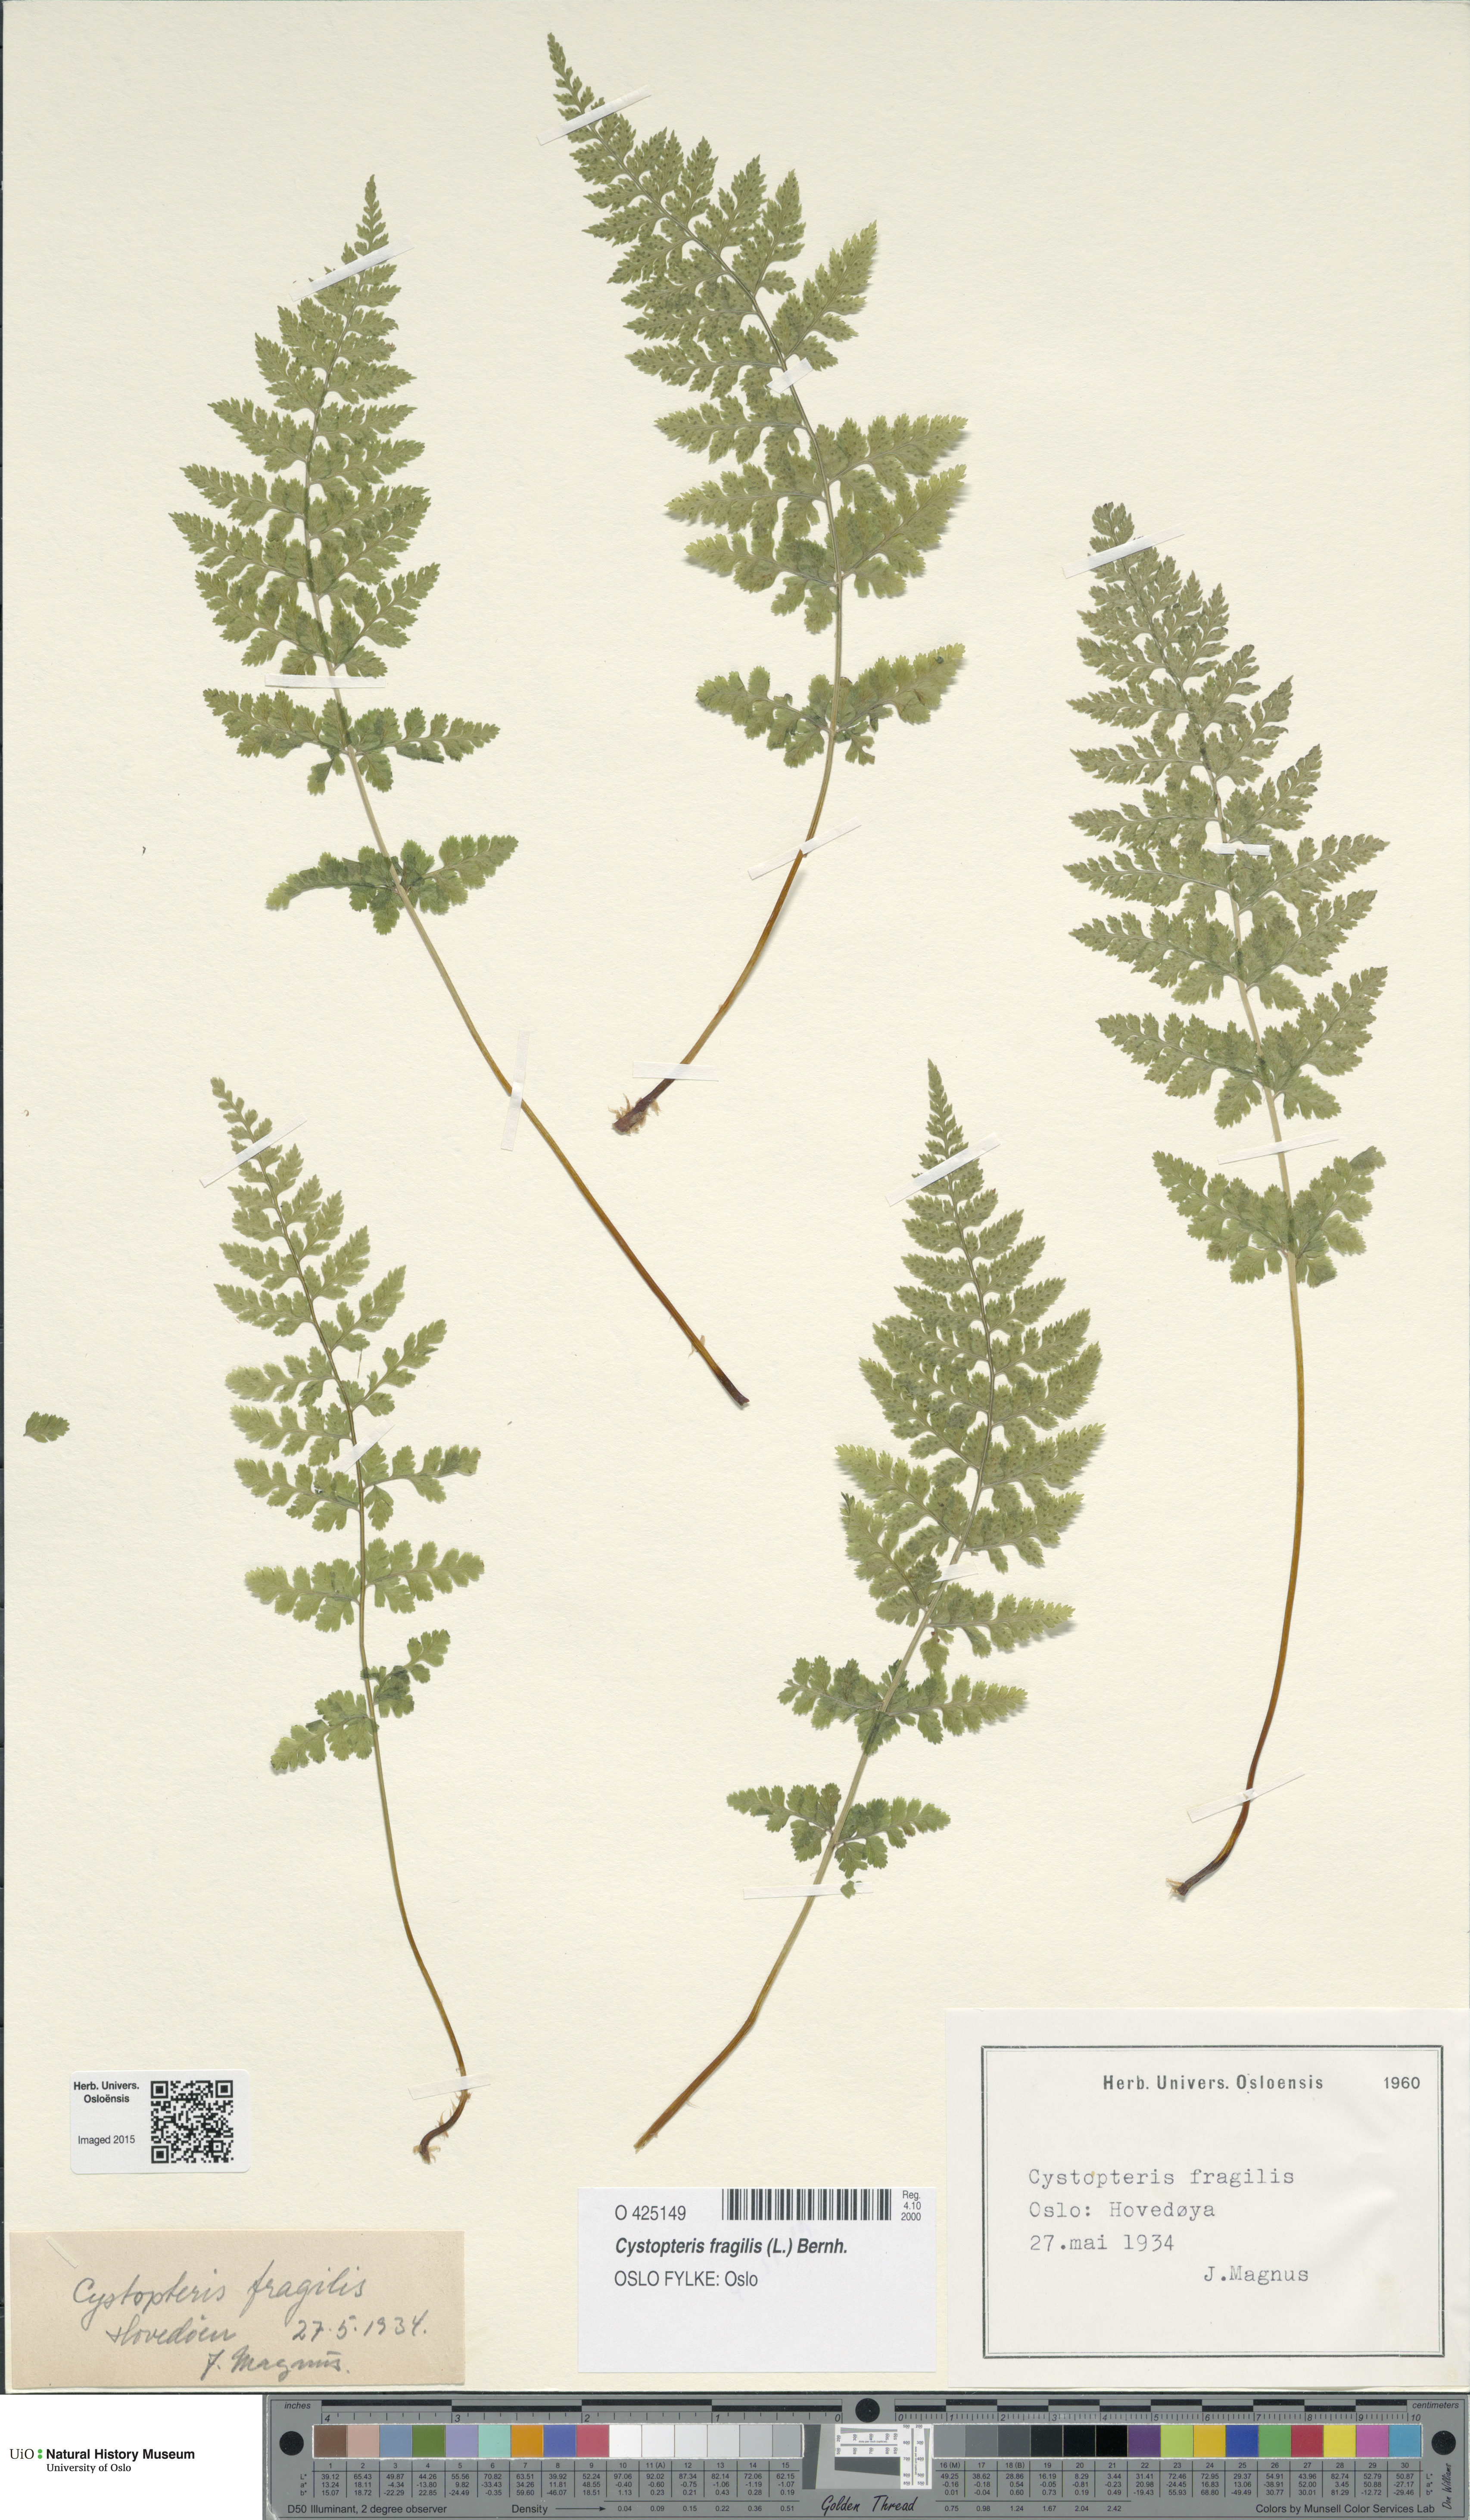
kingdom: Plantae
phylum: Tracheophyta
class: Polypodiopsida
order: Polypodiales
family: Cystopteridaceae
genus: Cystopteris
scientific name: Cystopteris fragilis
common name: Brittle bladder fern
